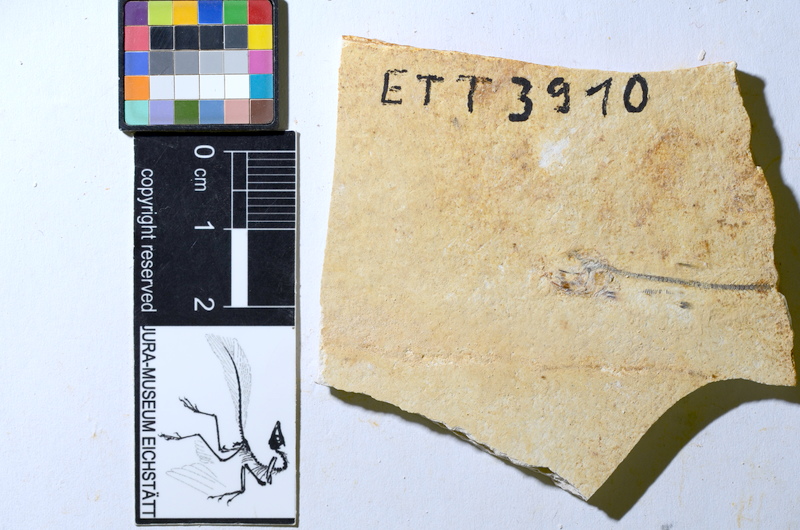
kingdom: Animalia
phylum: Chordata
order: Salmoniformes
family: Orthogonikleithridae
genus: Orthogonikleithrus
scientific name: Orthogonikleithrus hoelli
